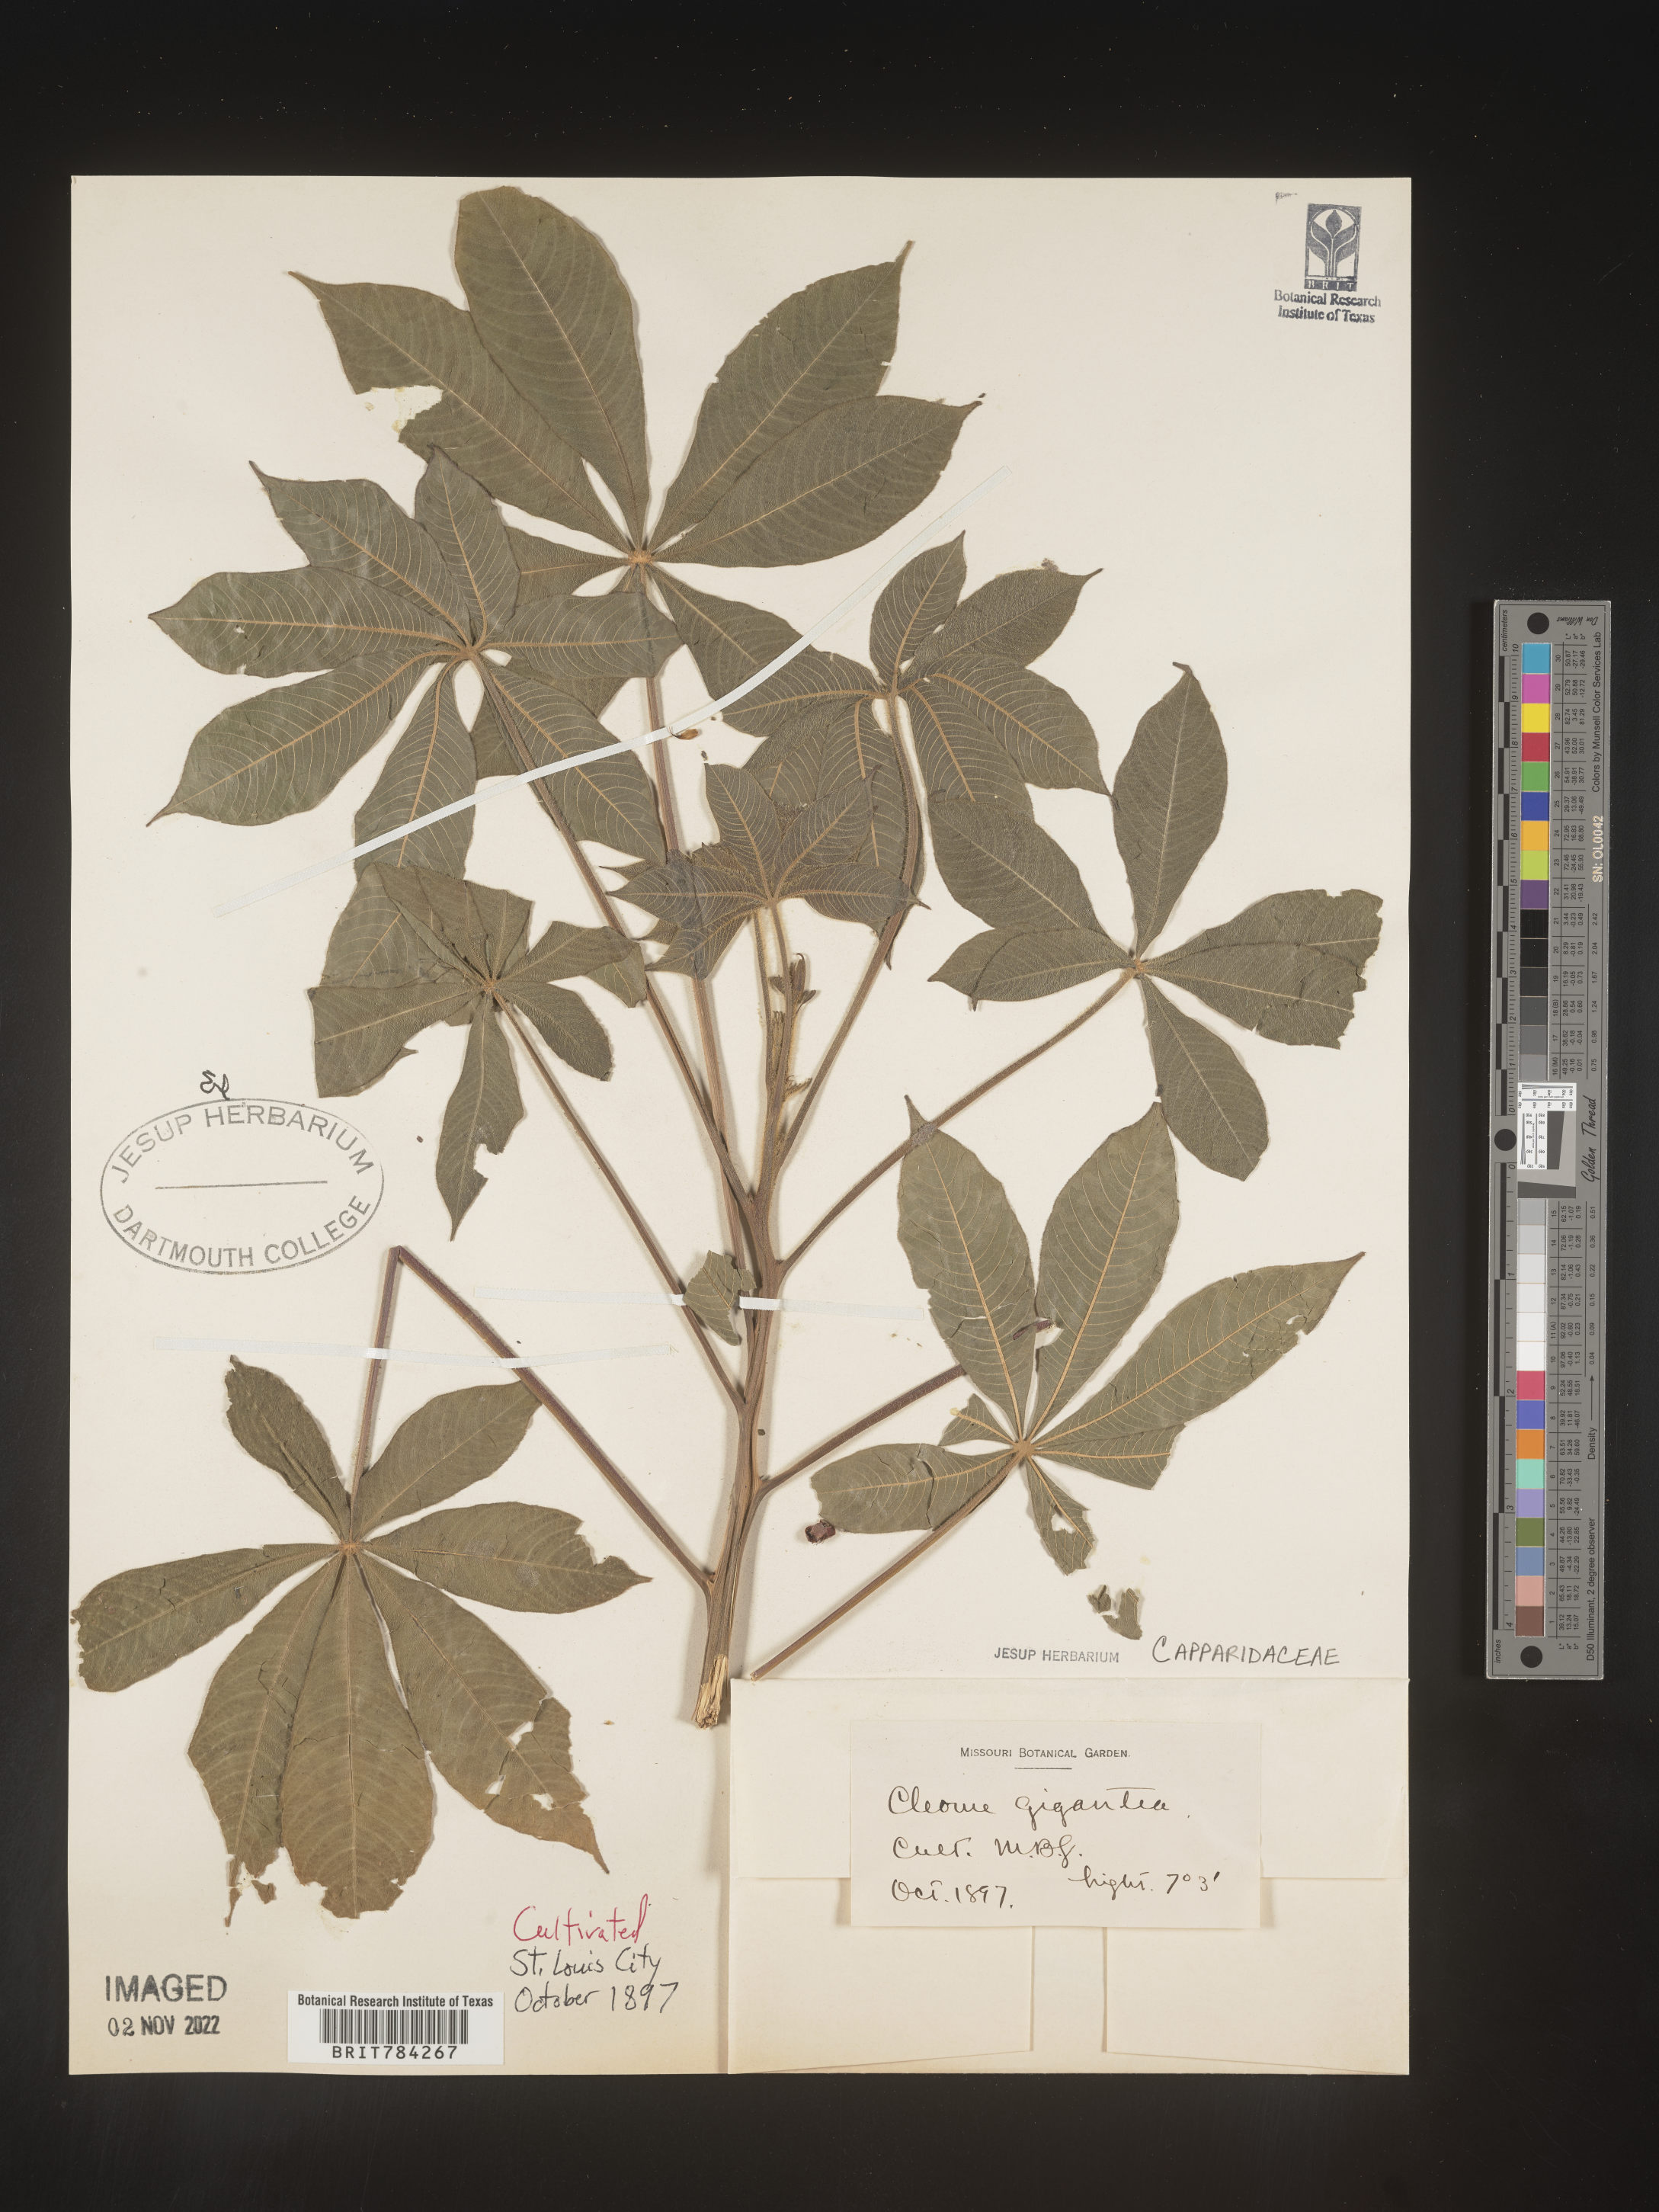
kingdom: Plantae
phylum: Tracheophyta
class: Magnoliopsida
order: Brassicales
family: Cleomaceae
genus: Cleome
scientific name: Cleome
